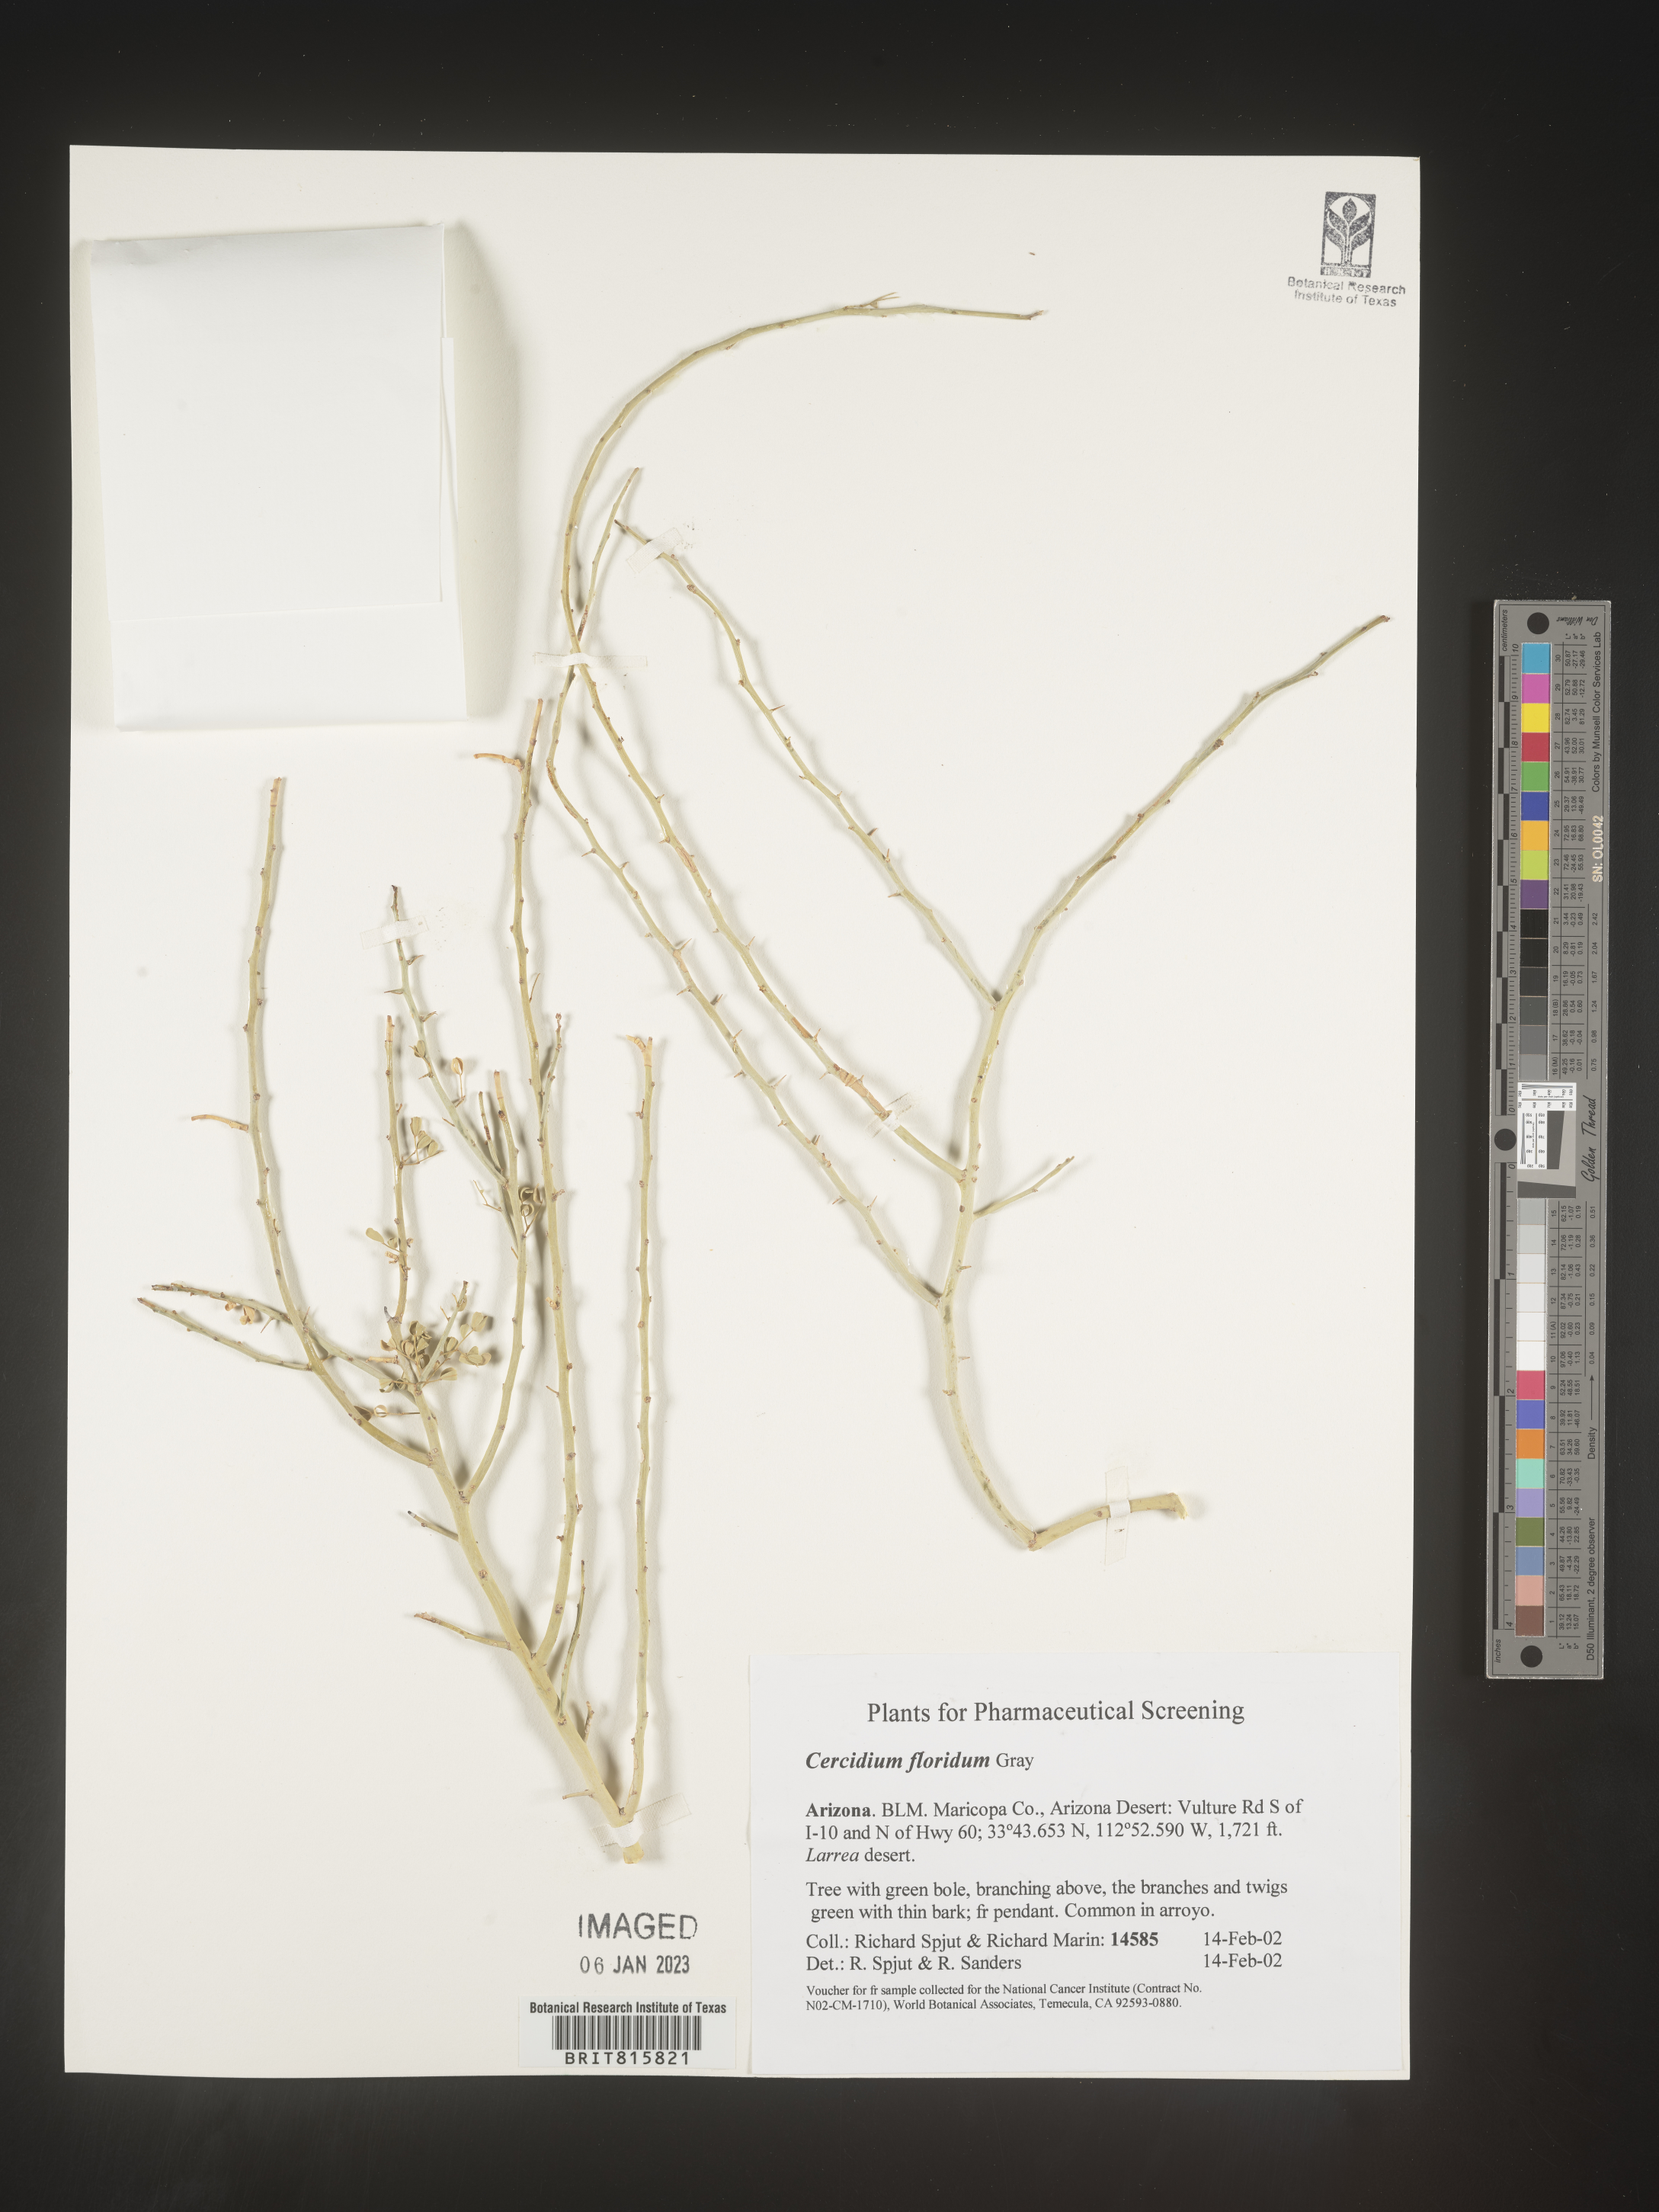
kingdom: Plantae
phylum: Chlorophyta
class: Chlorophyceae
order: Volvocales
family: Chlamydomonadaceae
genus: Cercidium
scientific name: Cercidium
